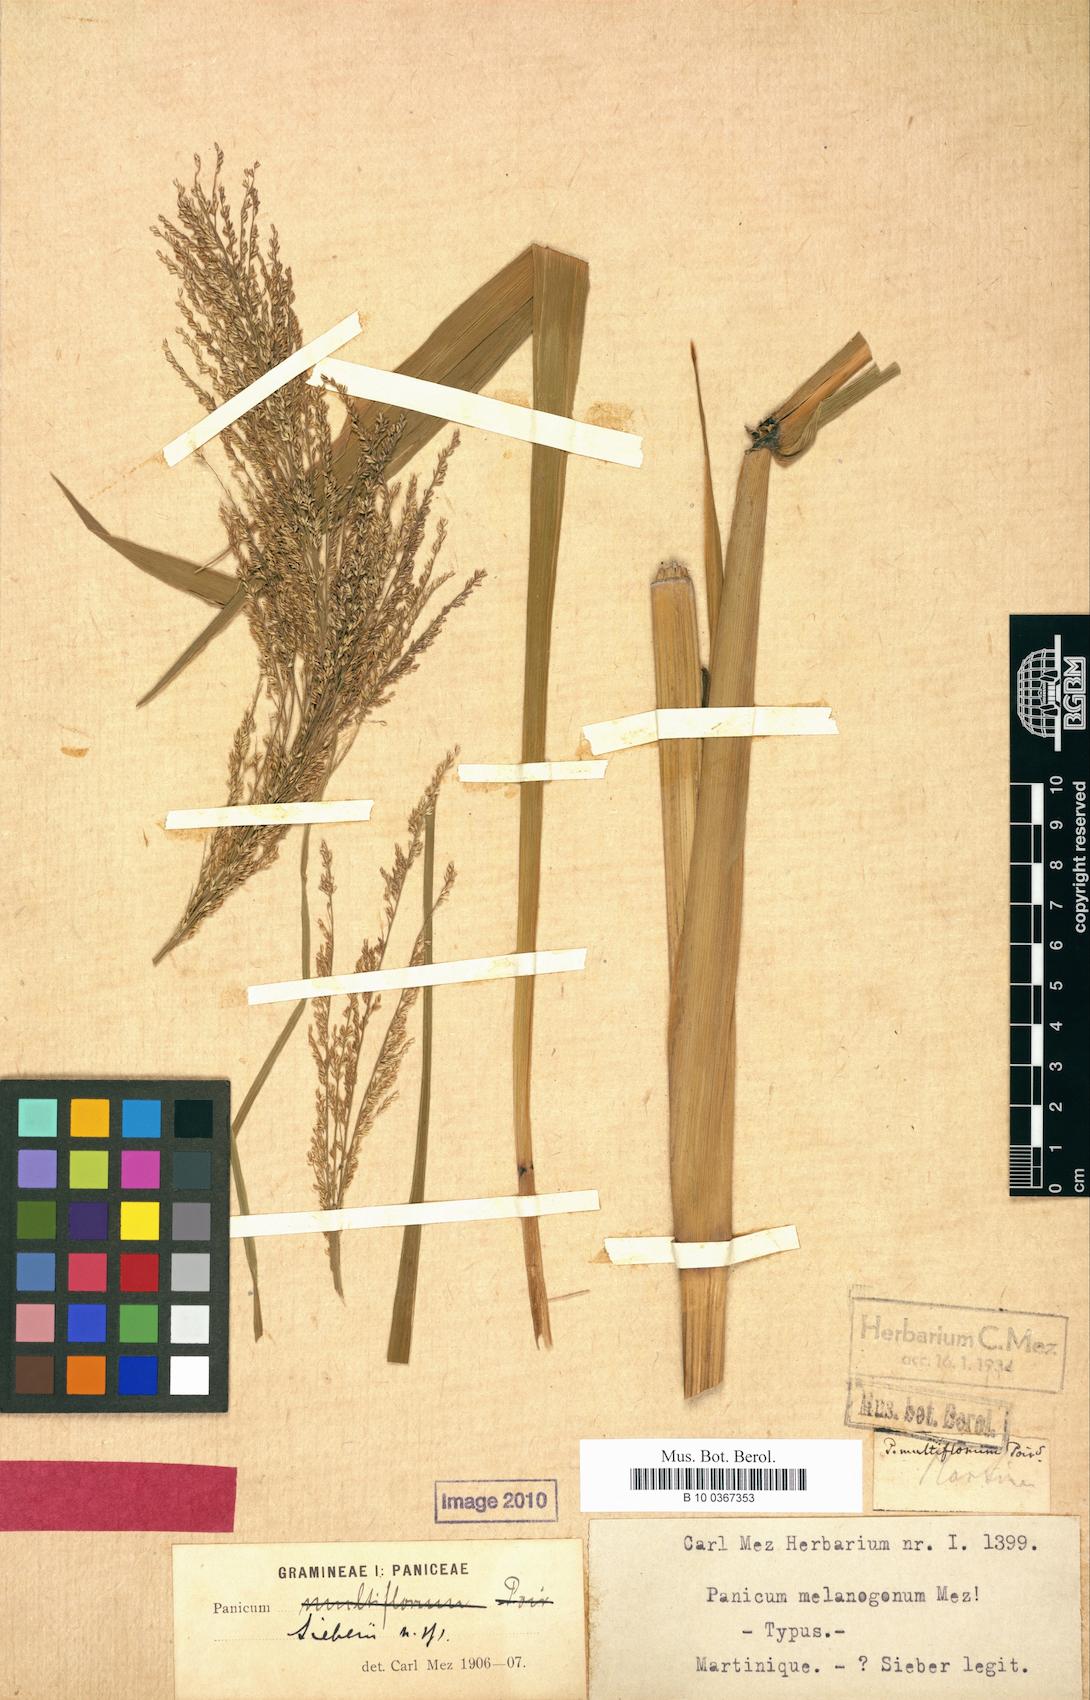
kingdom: Plantae
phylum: Tracheophyta
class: Liliopsida
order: Poales
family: Poaceae
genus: Panicum
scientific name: Panicum melanogonum
